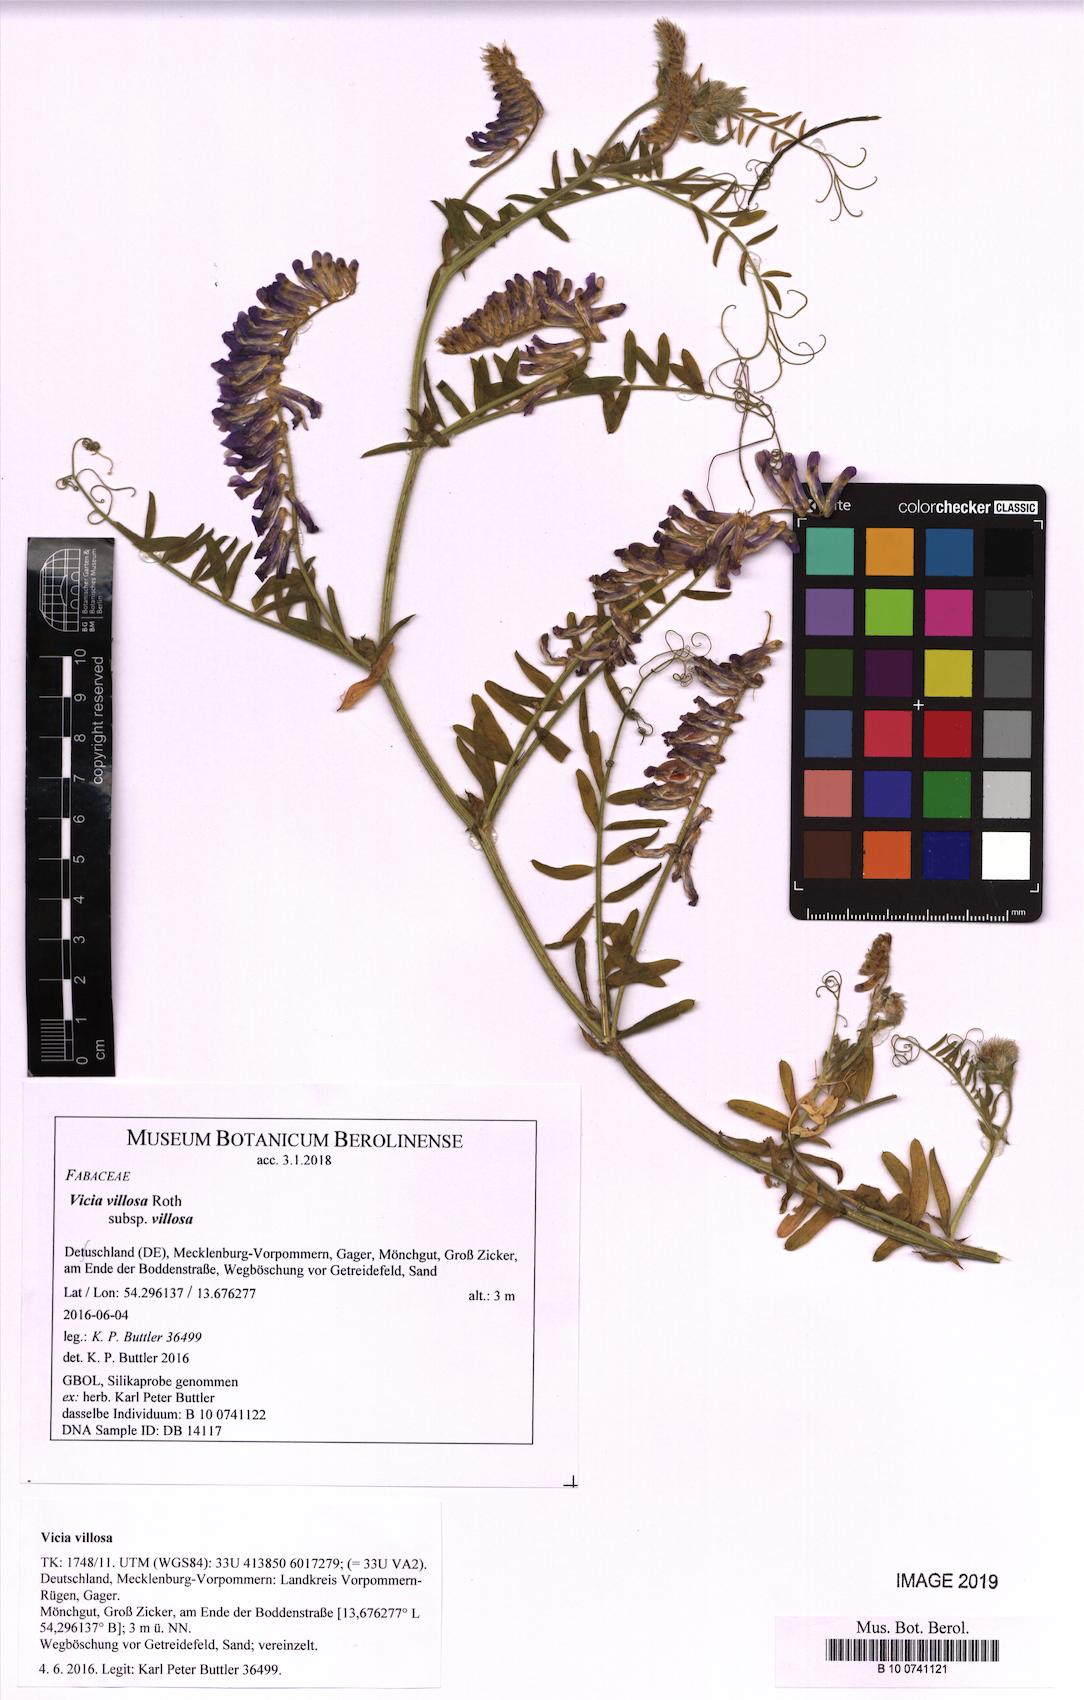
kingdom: Plantae
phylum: Tracheophyta
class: Magnoliopsida
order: Fabales
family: Fabaceae
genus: Vicia
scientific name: Vicia villosa
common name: Fodder vetch
